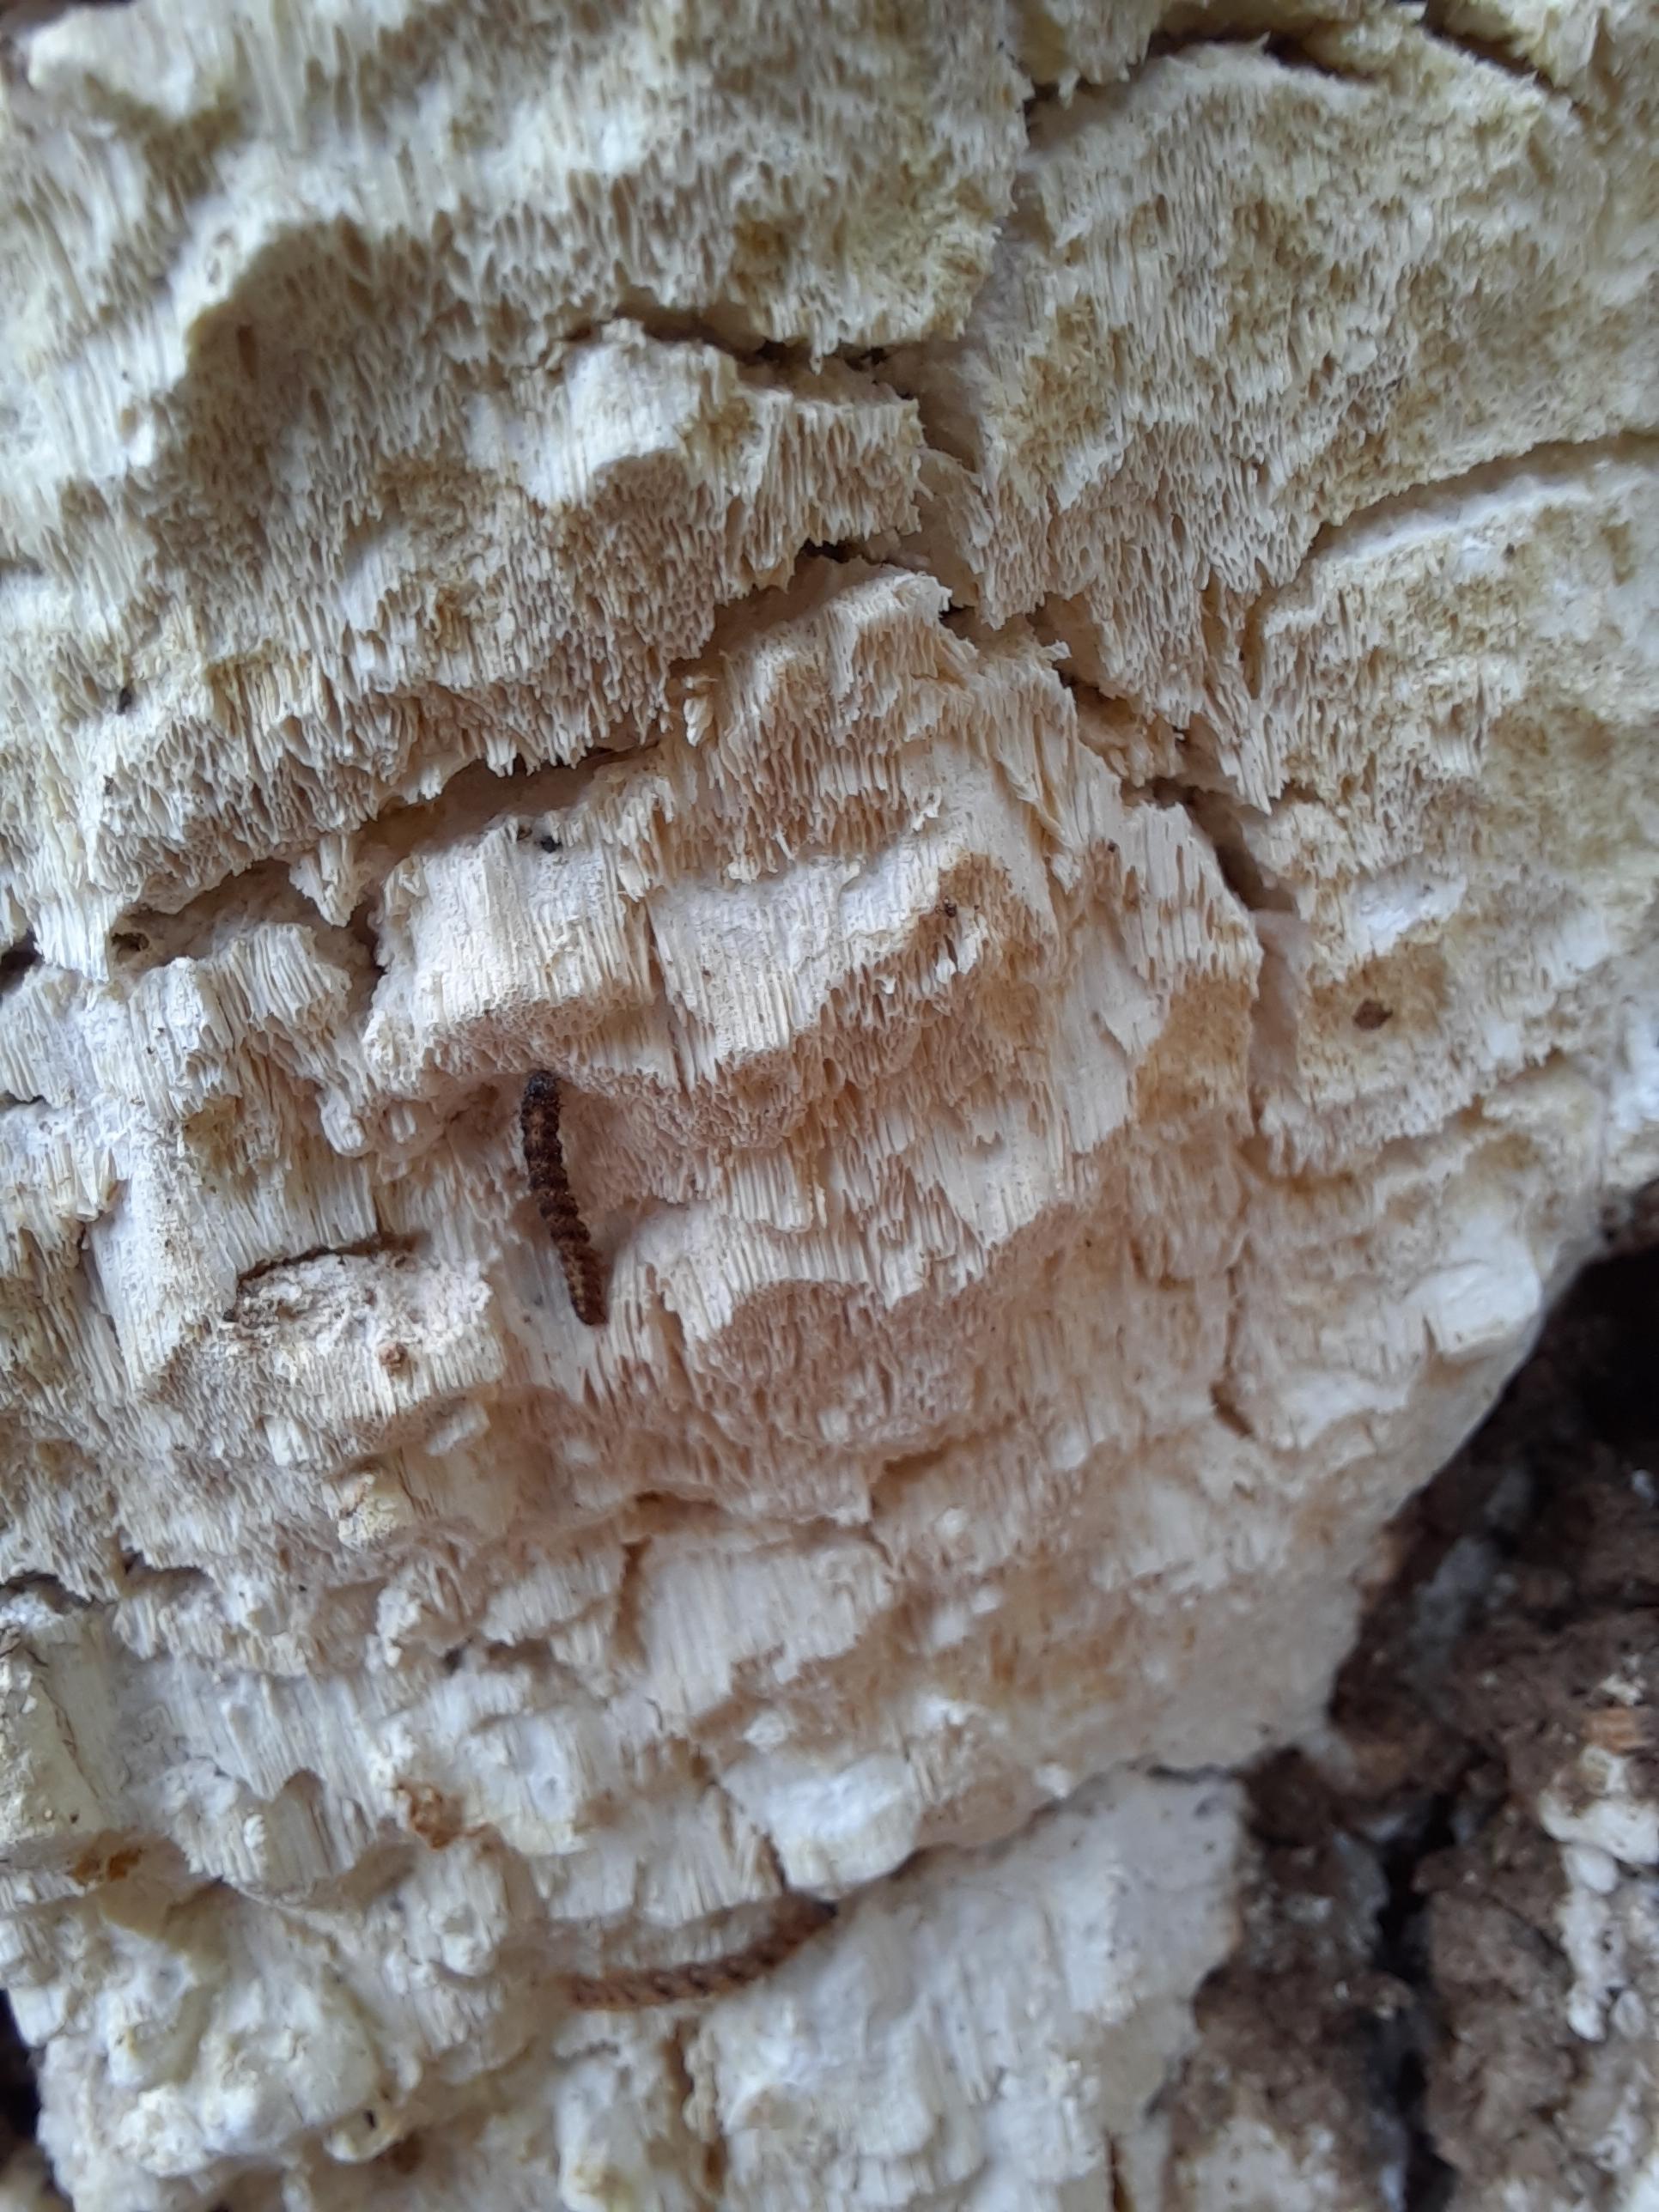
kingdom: Fungi
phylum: Basidiomycota
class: Agaricomycetes
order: Polyporales
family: Fomitopsidaceae
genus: Daedalea
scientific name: Daedalea xantha
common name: gul sejporesvamp
